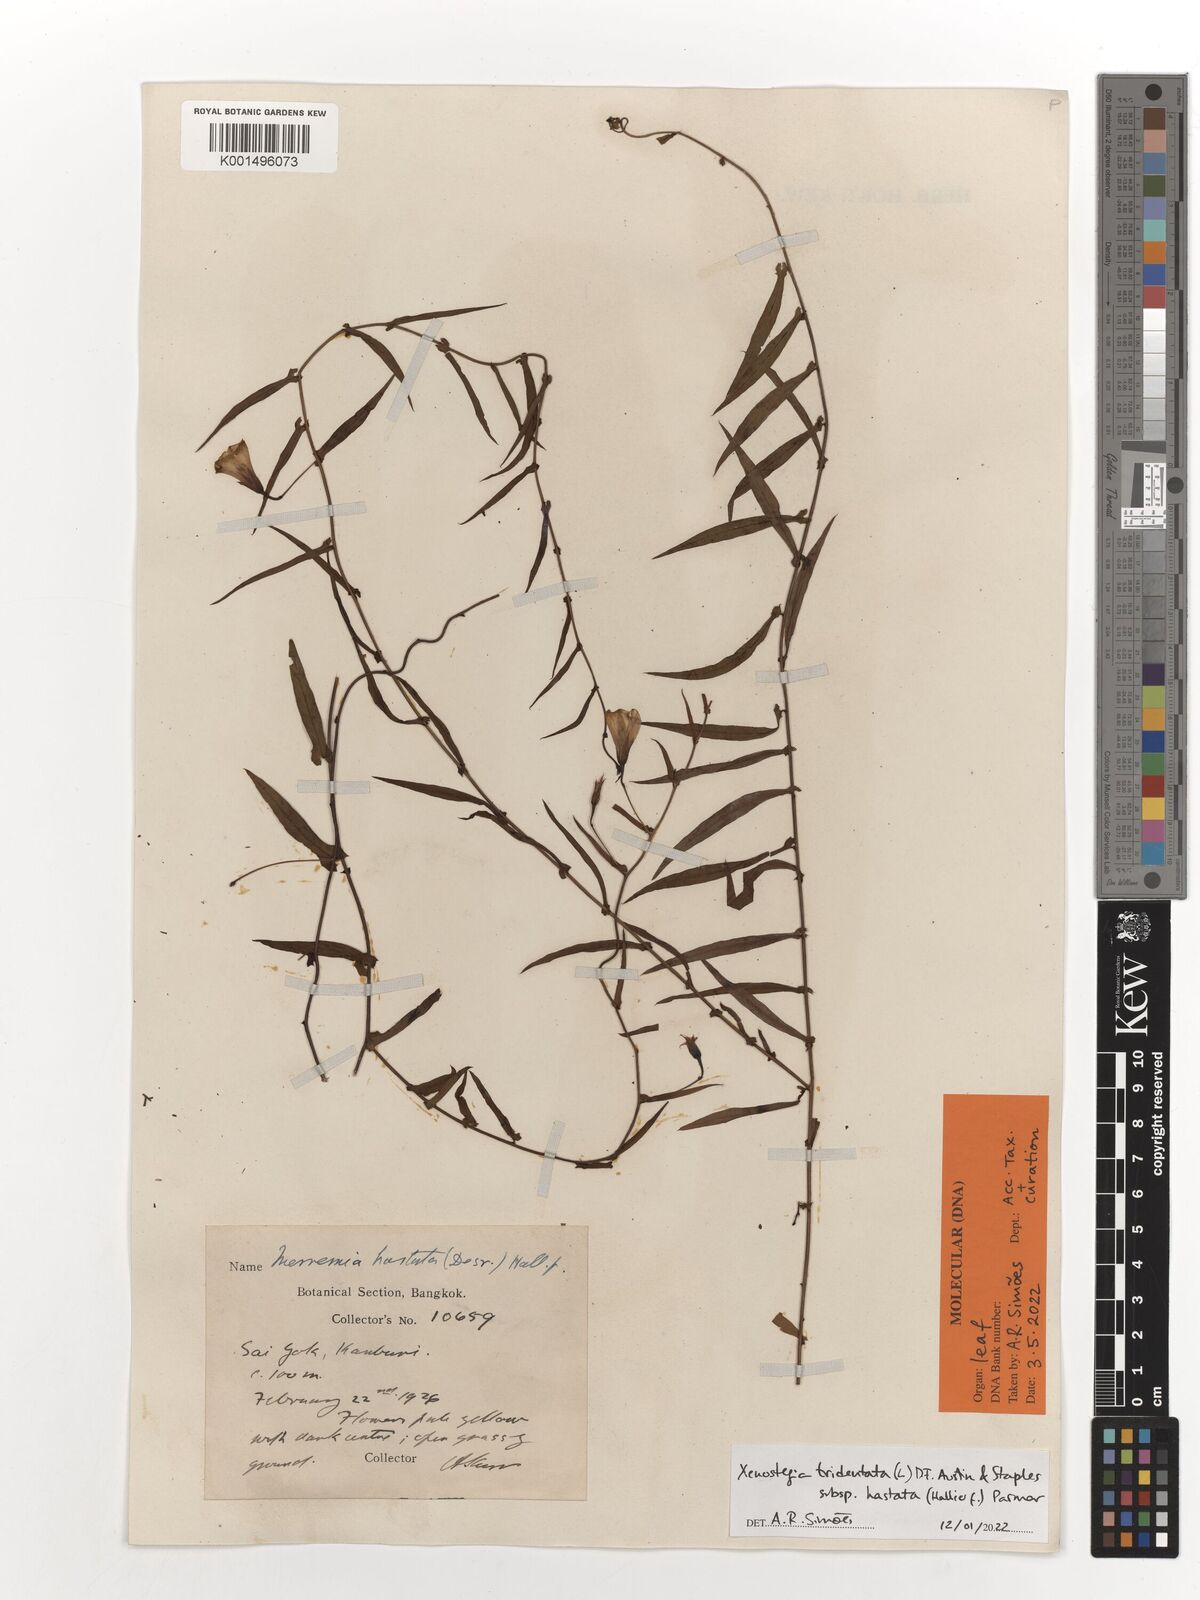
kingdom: Plantae
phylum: Tracheophyta
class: Magnoliopsida
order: Solanales
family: Convolvulaceae
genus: Xenostegia
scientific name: Xenostegia tridentata
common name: African morningvine
